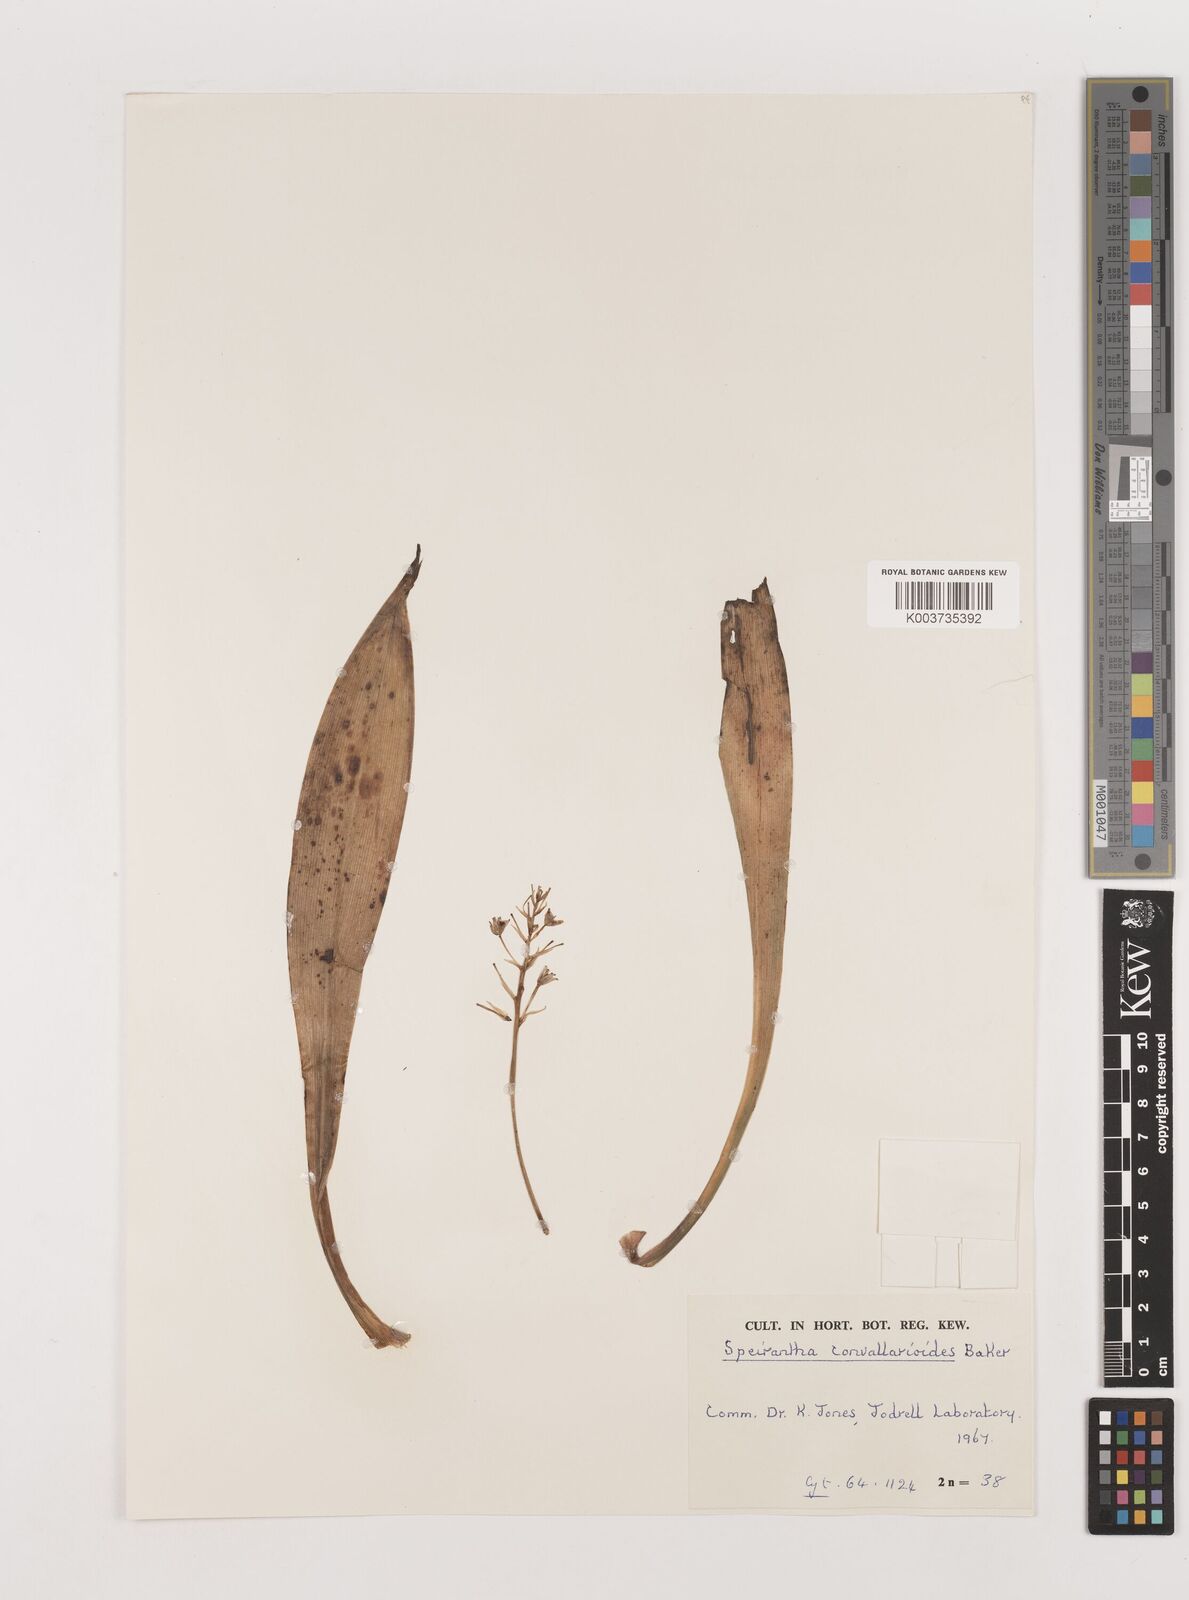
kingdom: Plantae
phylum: Tracheophyta
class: Liliopsida
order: Asparagales
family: Asparagaceae
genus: Speirantha
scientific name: Speirantha gardenii
